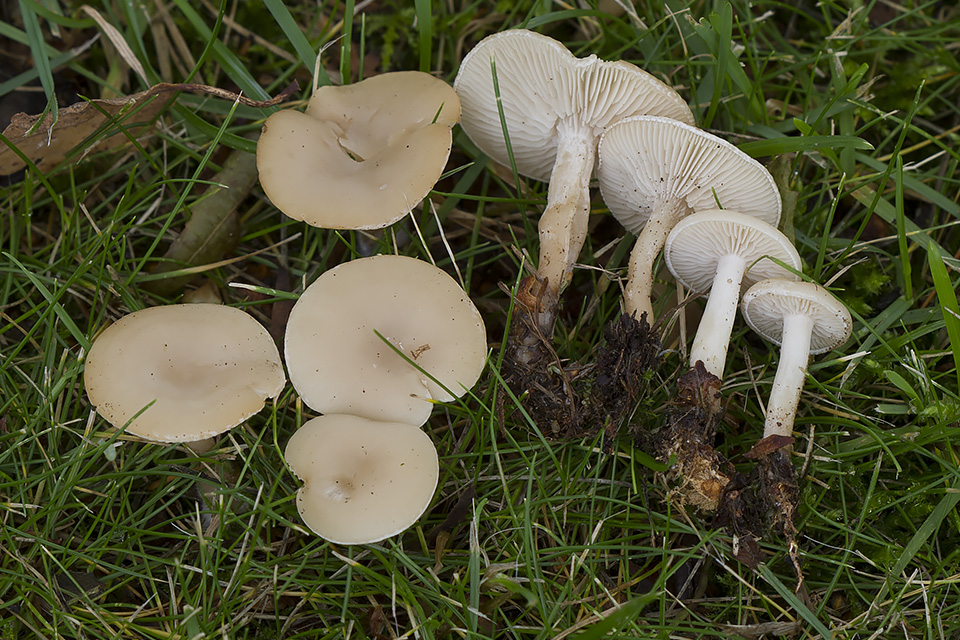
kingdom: Fungi
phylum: Basidiomycota
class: Agaricomycetes
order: Agaricales
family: Tricholomataceae
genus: Clitocybe
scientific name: Clitocybe rivulosa
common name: eng-tragthat
